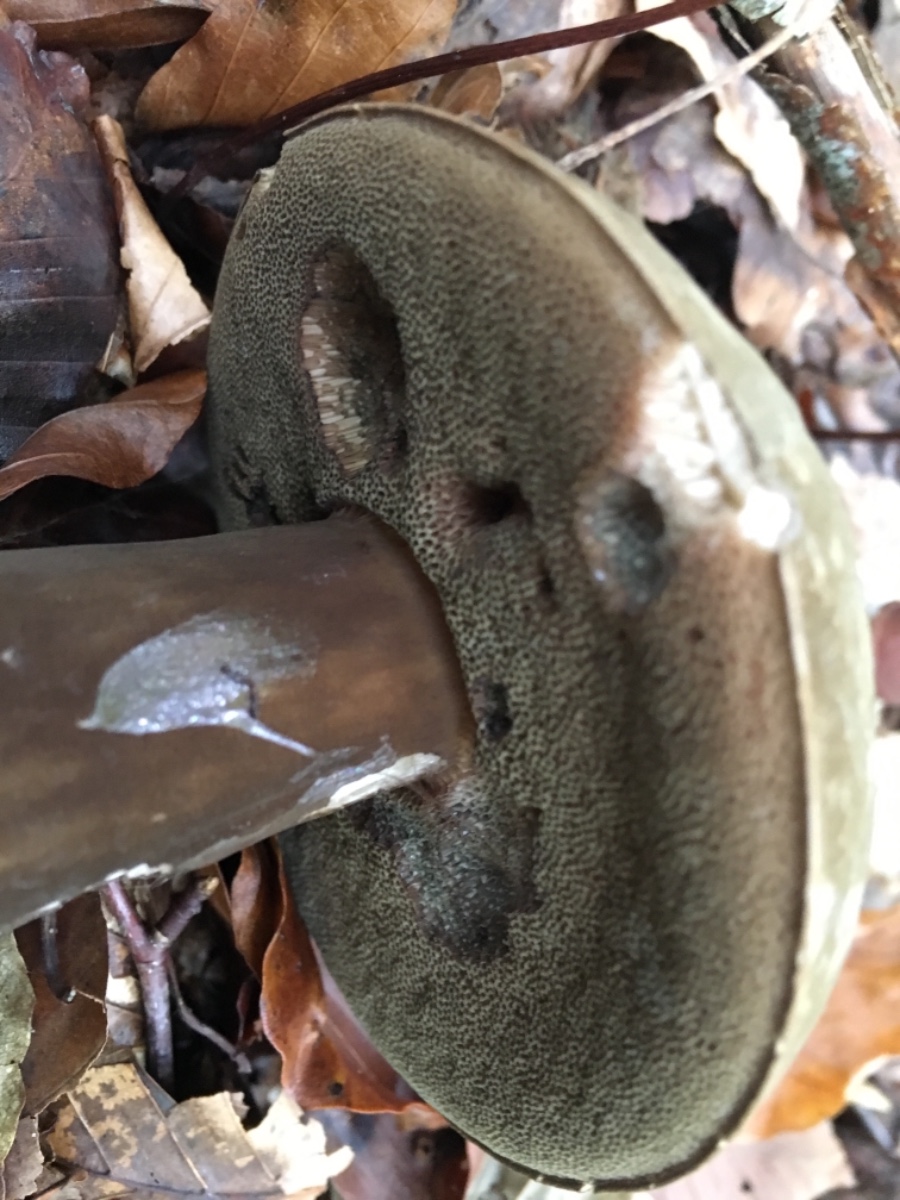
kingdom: Fungi
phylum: Basidiomycota
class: Agaricomycetes
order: Boletales
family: Boletaceae
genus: Porphyrellus
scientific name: Porphyrellus porphyrosporus
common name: sodrørhat
